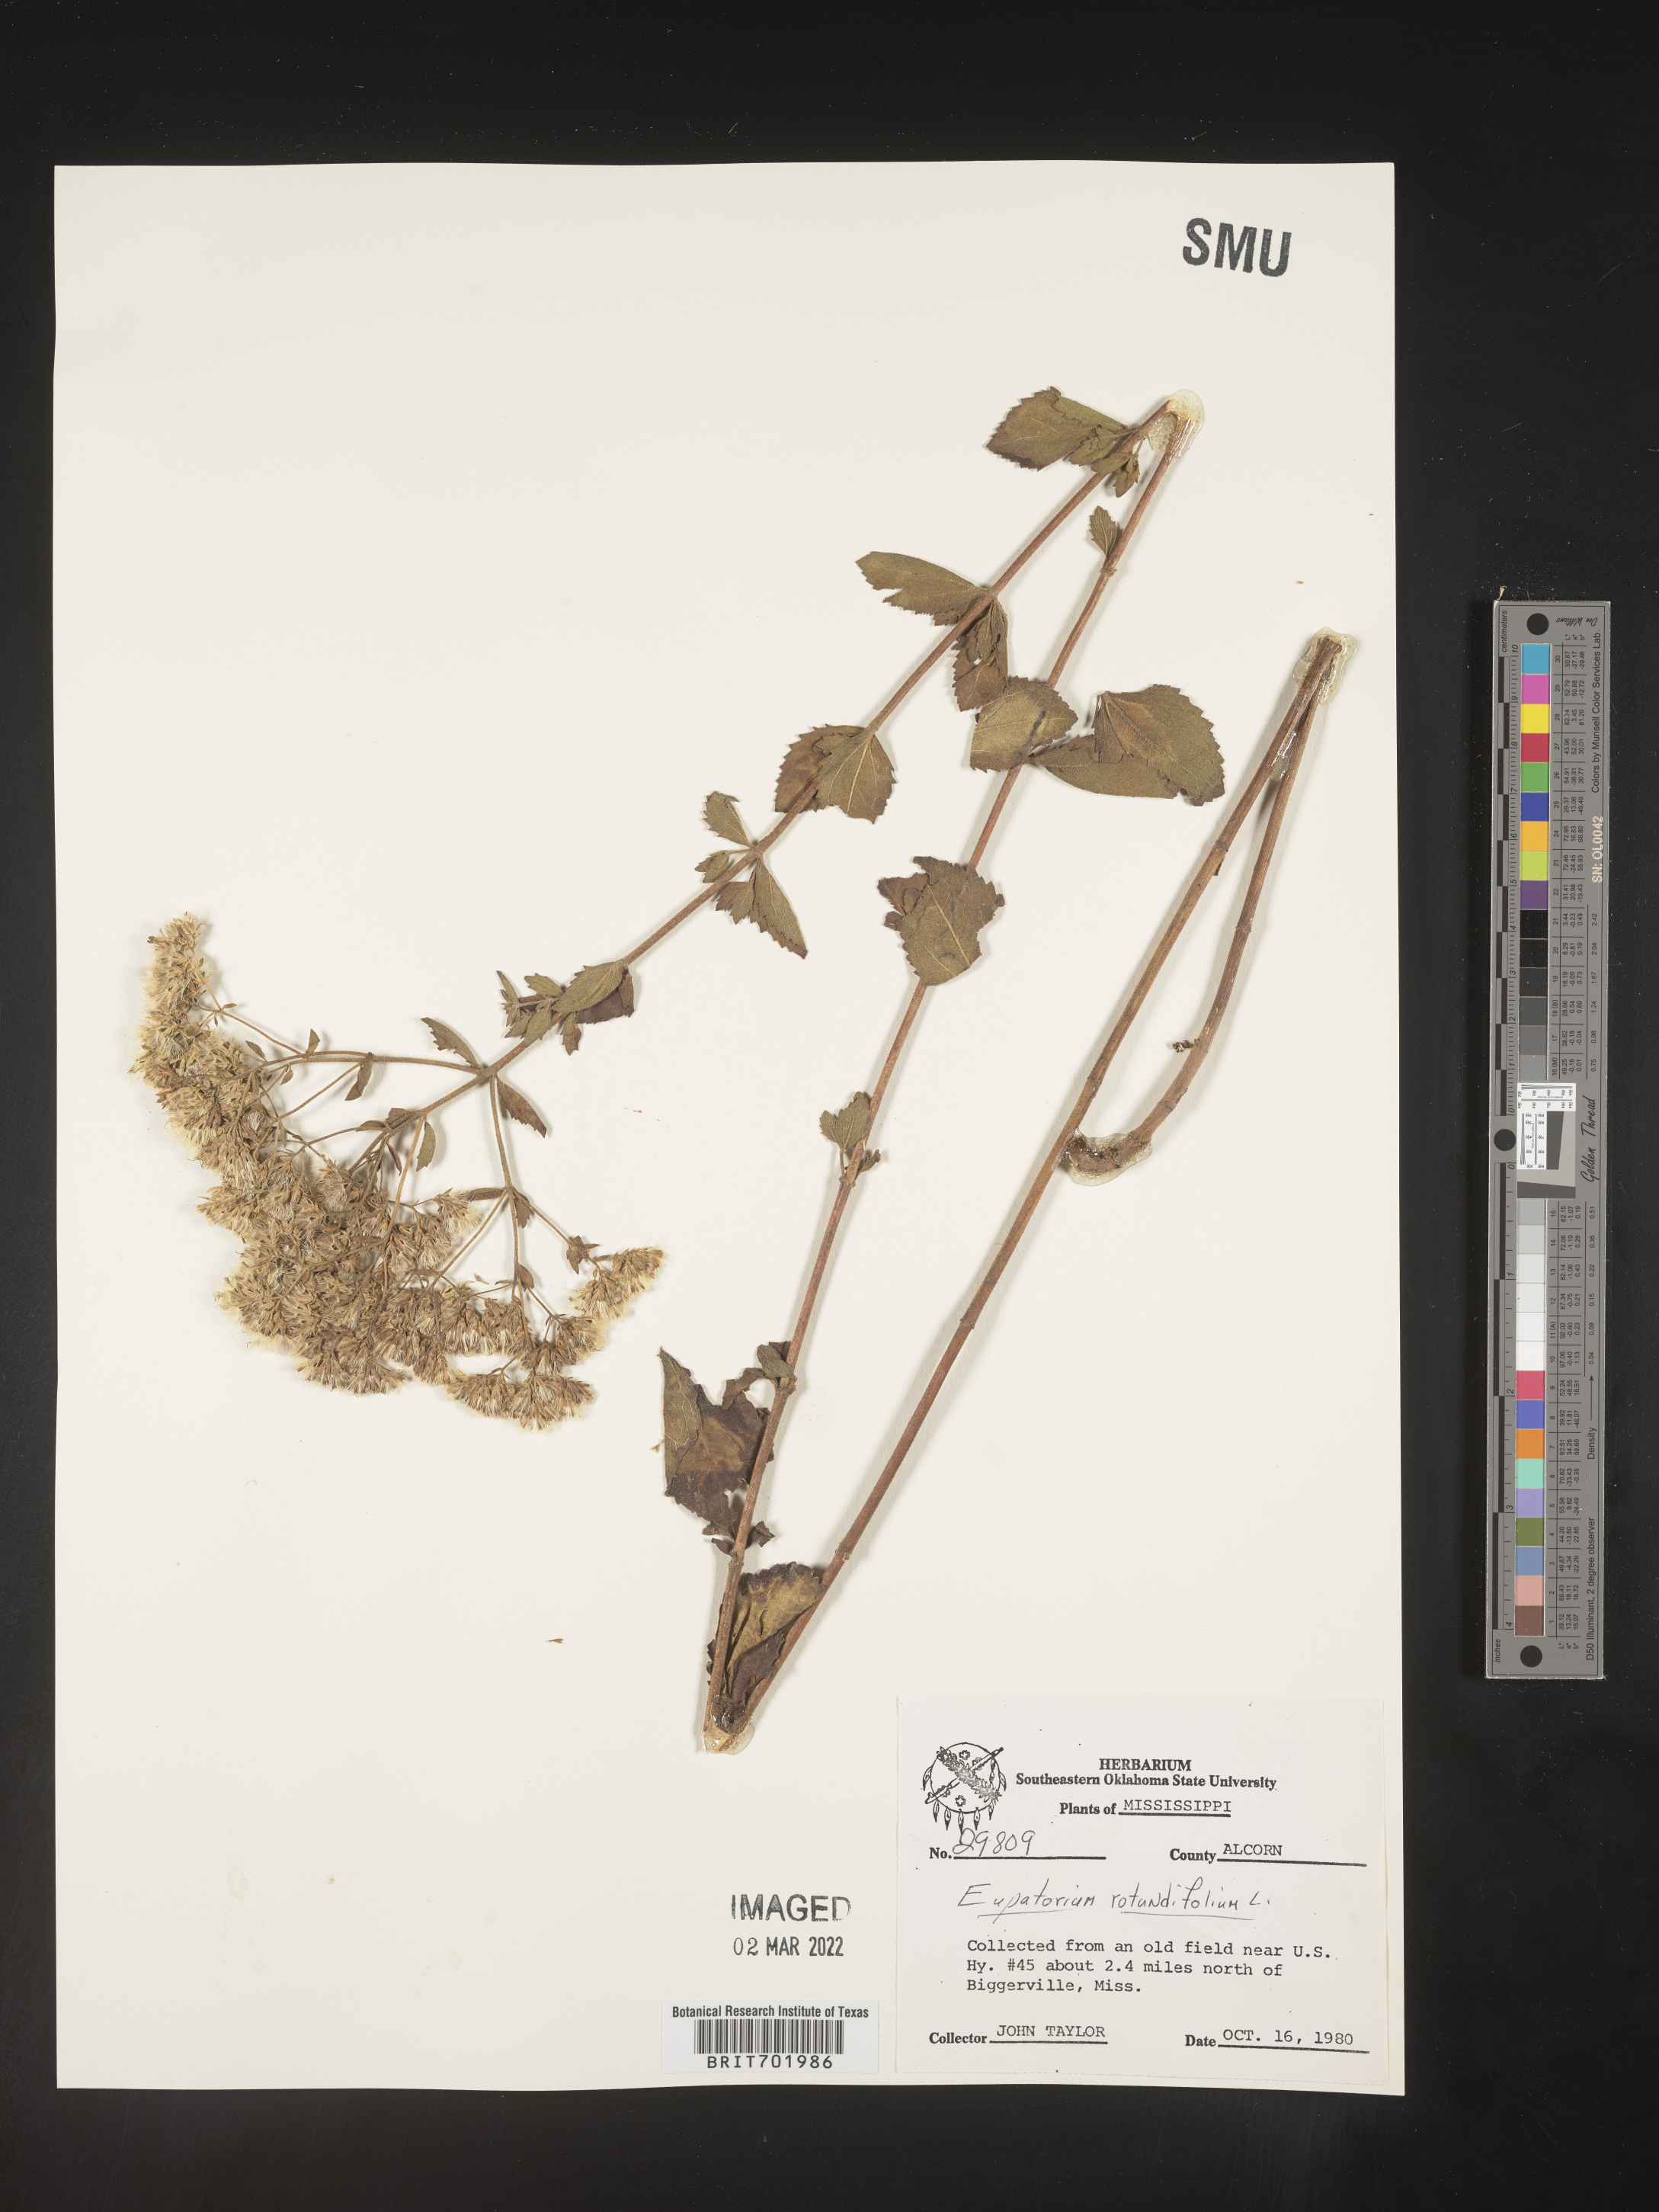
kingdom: Plantae
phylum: Tracheophyta
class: Magnoliopsida
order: Asterales
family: Asteraceae
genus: Eupatorium
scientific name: Eupatorium rotundifolium
